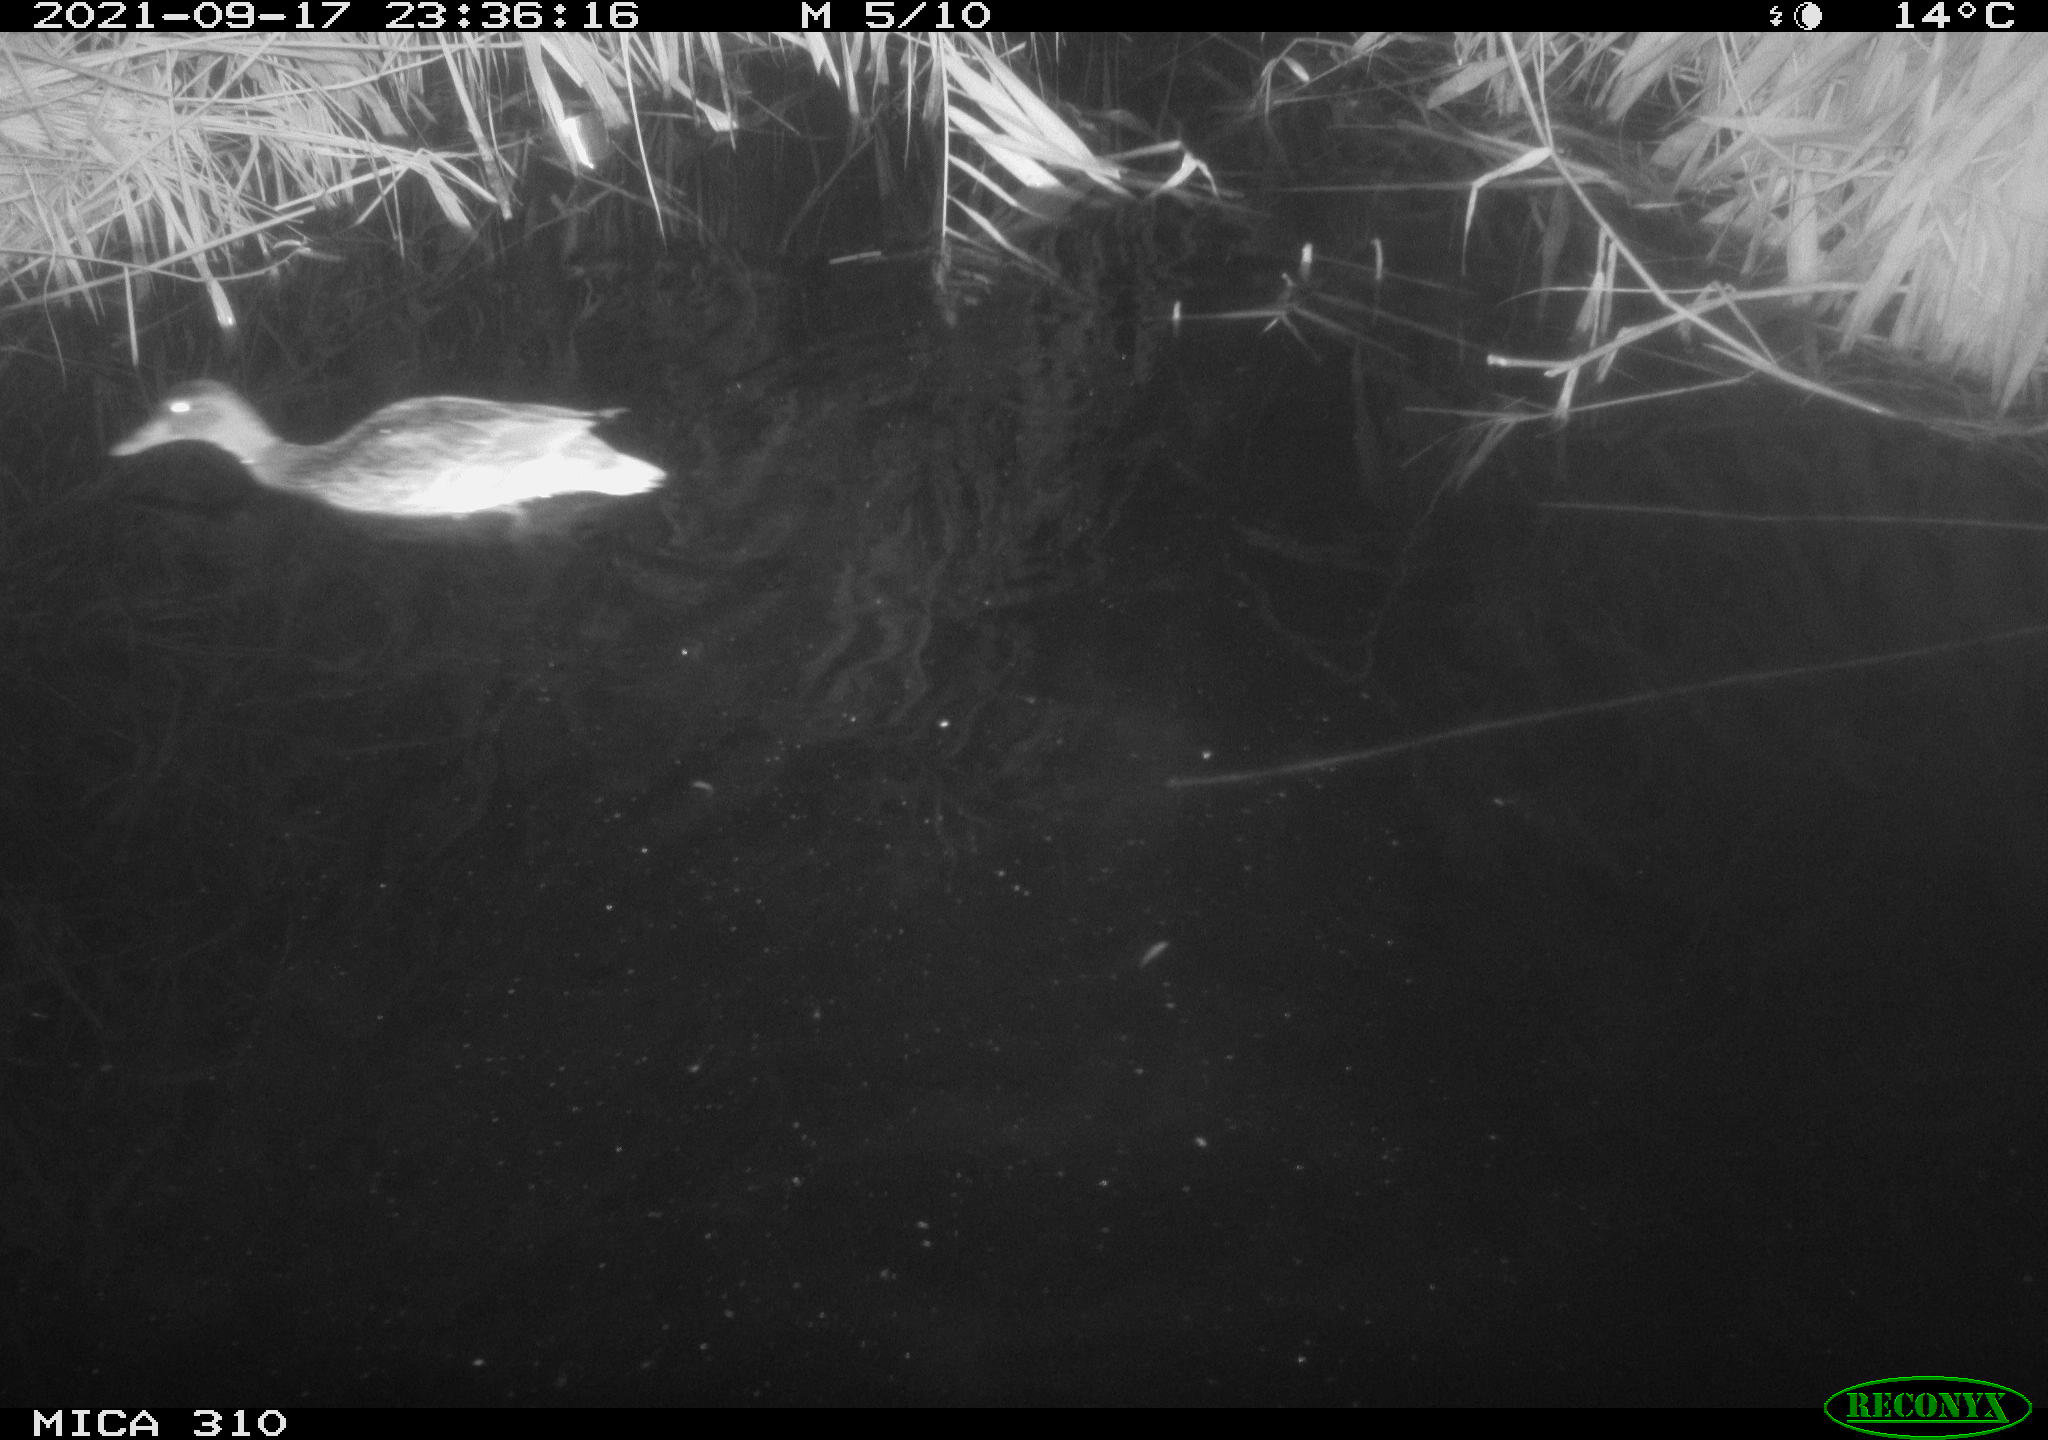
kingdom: Animalia
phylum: Chordata
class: Aves
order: Anseriformes
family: Anatidae
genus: Mareca
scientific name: Mareca strepera
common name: Gadwall
